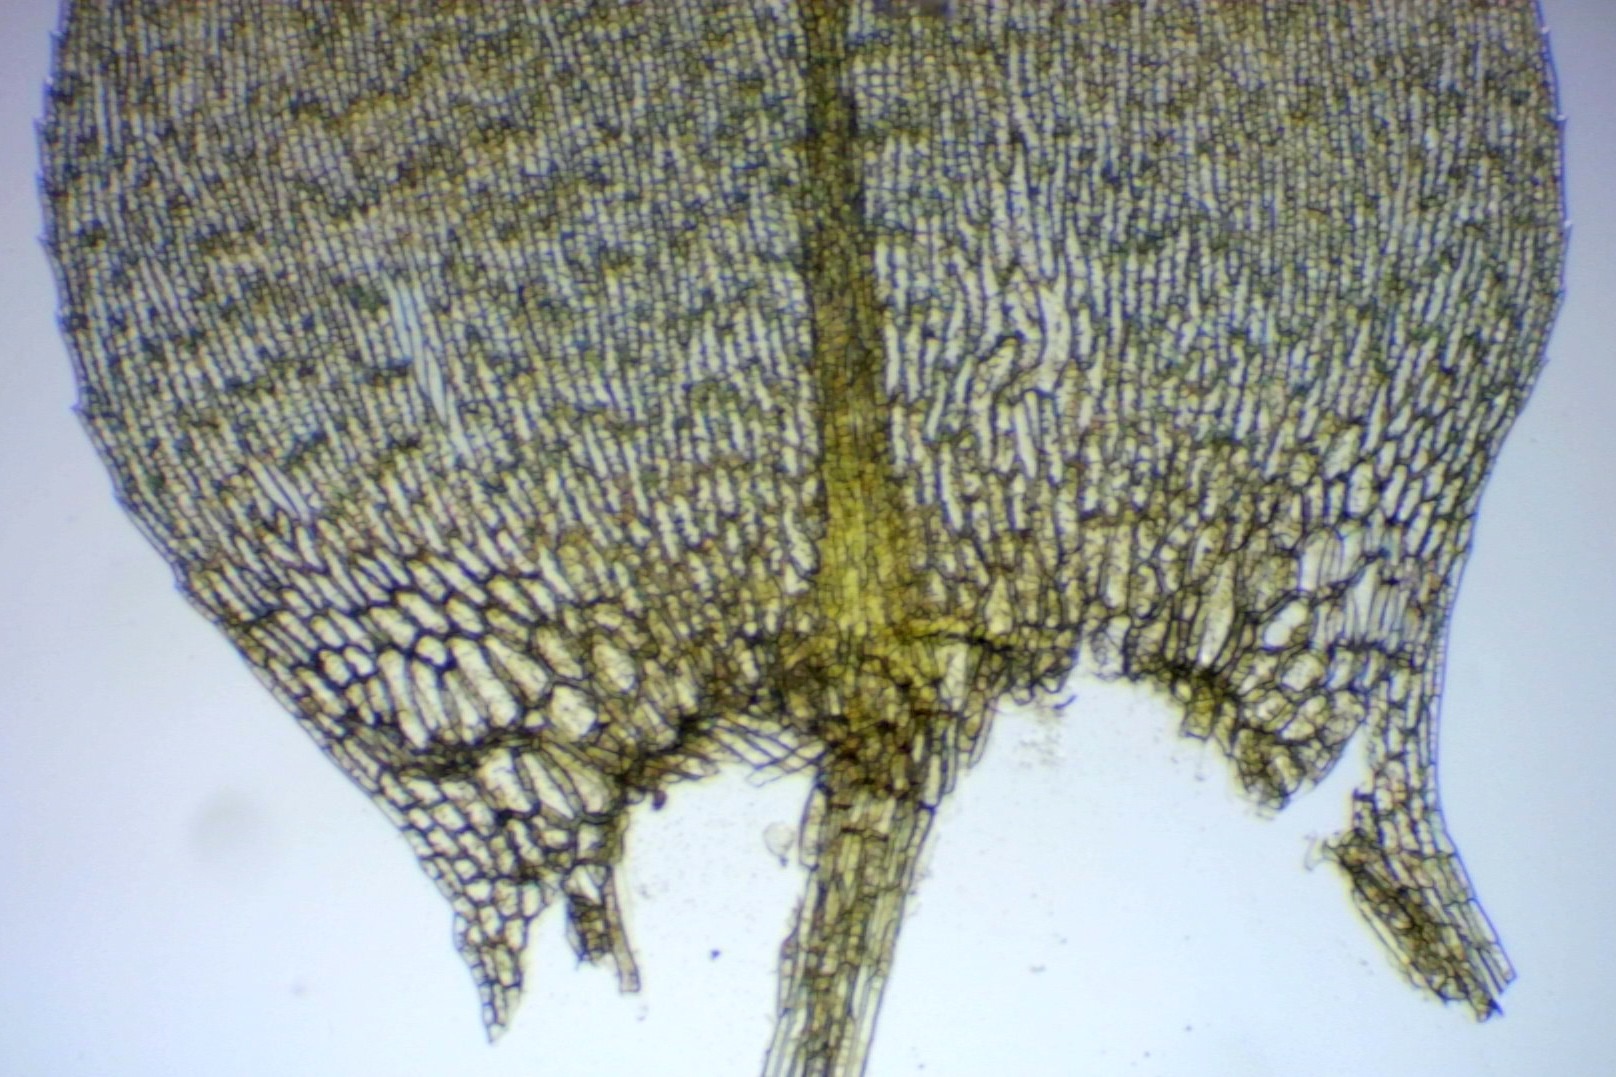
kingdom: Plantae
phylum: Bryophyta
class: Bryopsida
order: Hypnales
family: Brachytheciaceae
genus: Brachythecium
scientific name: Brachythecium rutabulum
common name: Almindelig kortkapsel
